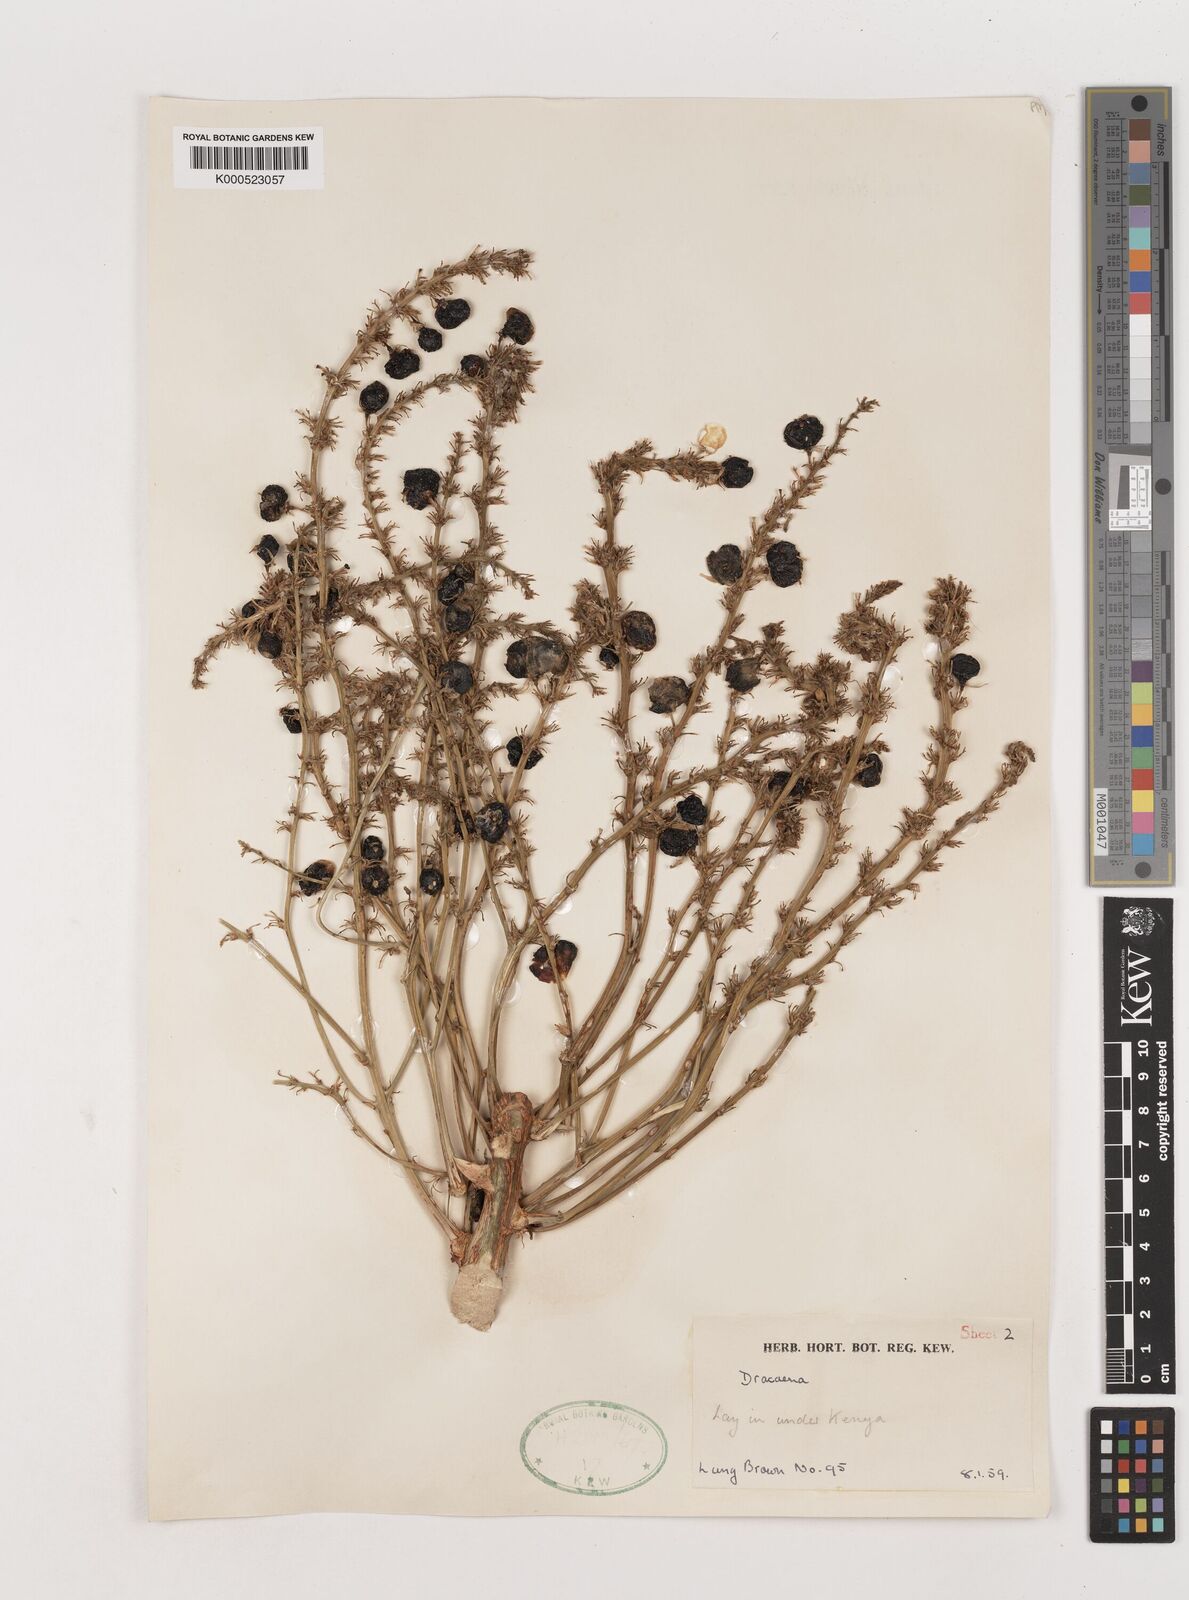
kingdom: Plantae
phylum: Tracheophyta
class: Liliopsida
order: Asparagales
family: Asparagaceae
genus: Dracaena
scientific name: Dracaena ellenbeckiana
